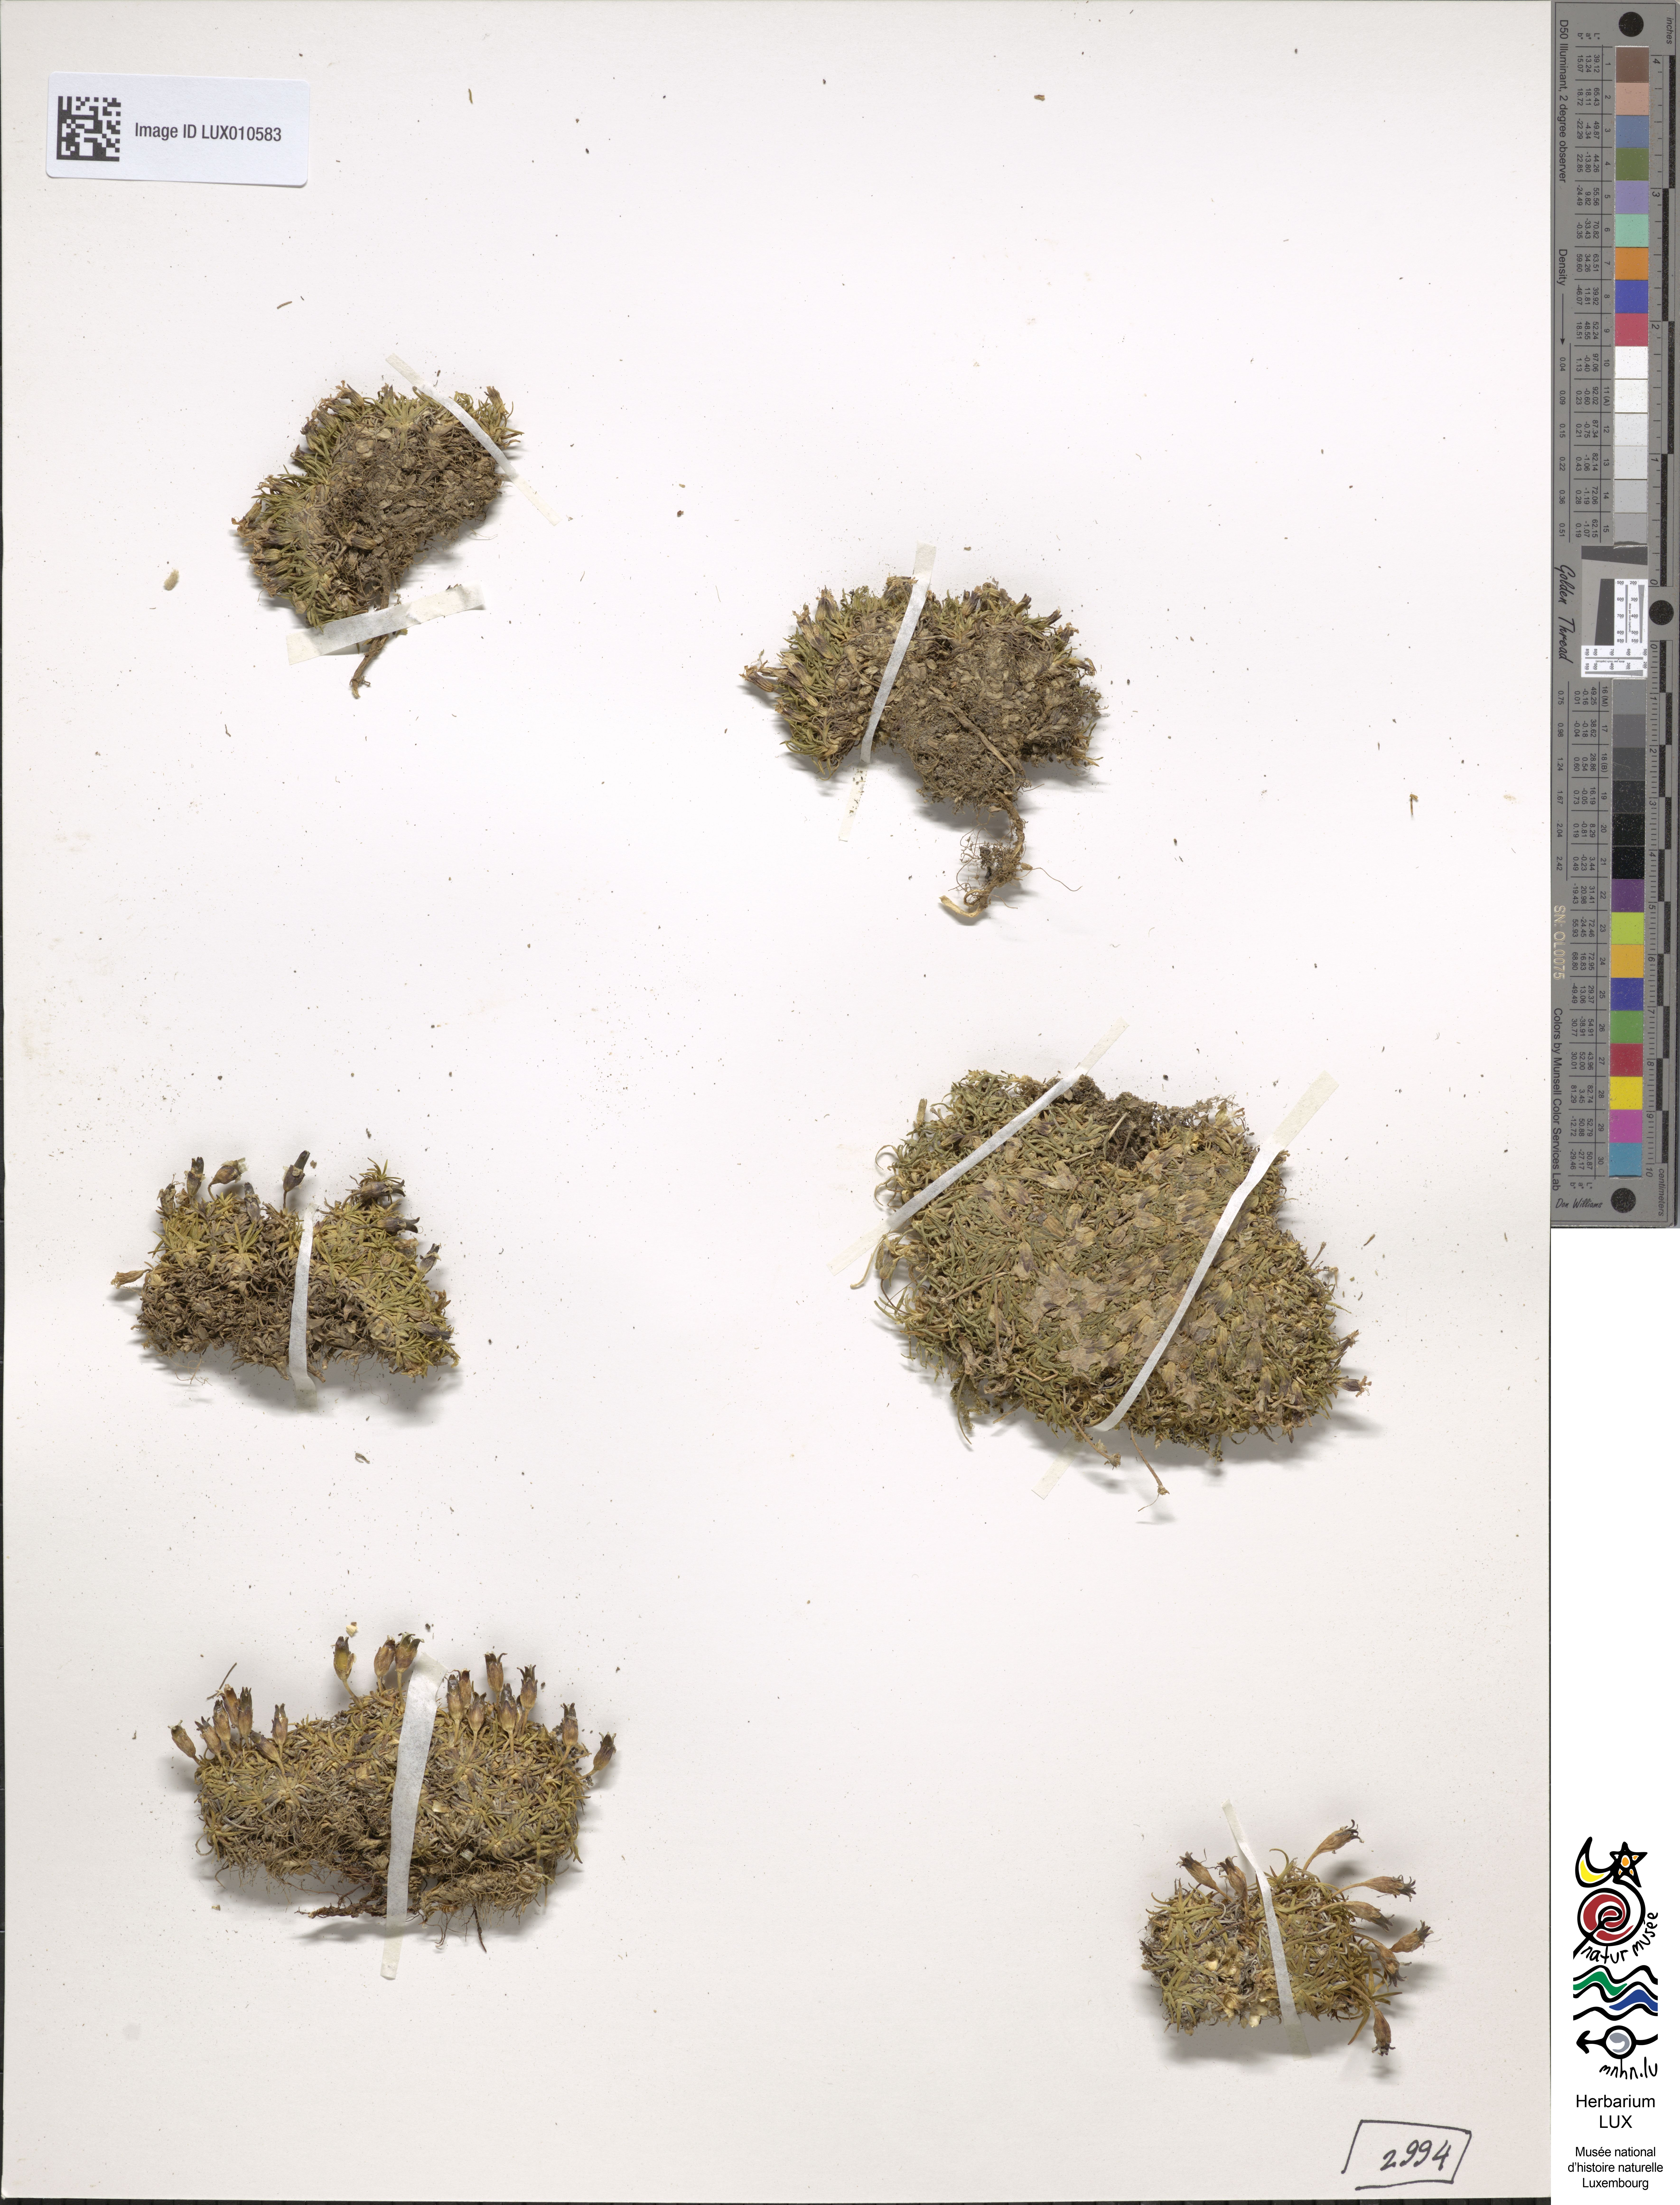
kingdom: Plantae
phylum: Tracheophyta
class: Magnoliopsida
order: Caryophyllales
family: Caryophyllaceae
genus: Silene
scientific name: Silene acaulis
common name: Moss campion
